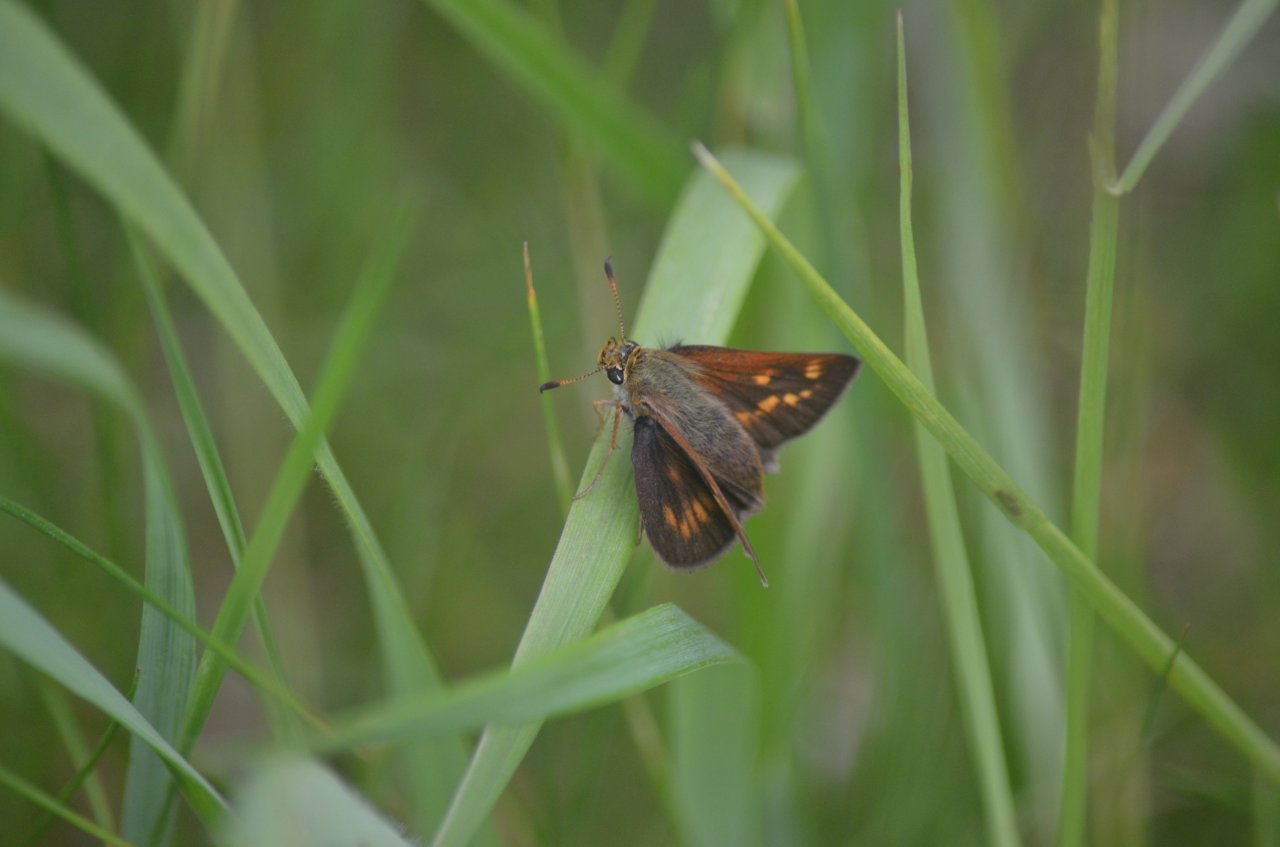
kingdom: Animalia
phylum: Arthropoda
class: Insecta
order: Lepidoptera
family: Hesperiidae
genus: Polites
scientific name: Polites
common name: Long Dash Skipper
